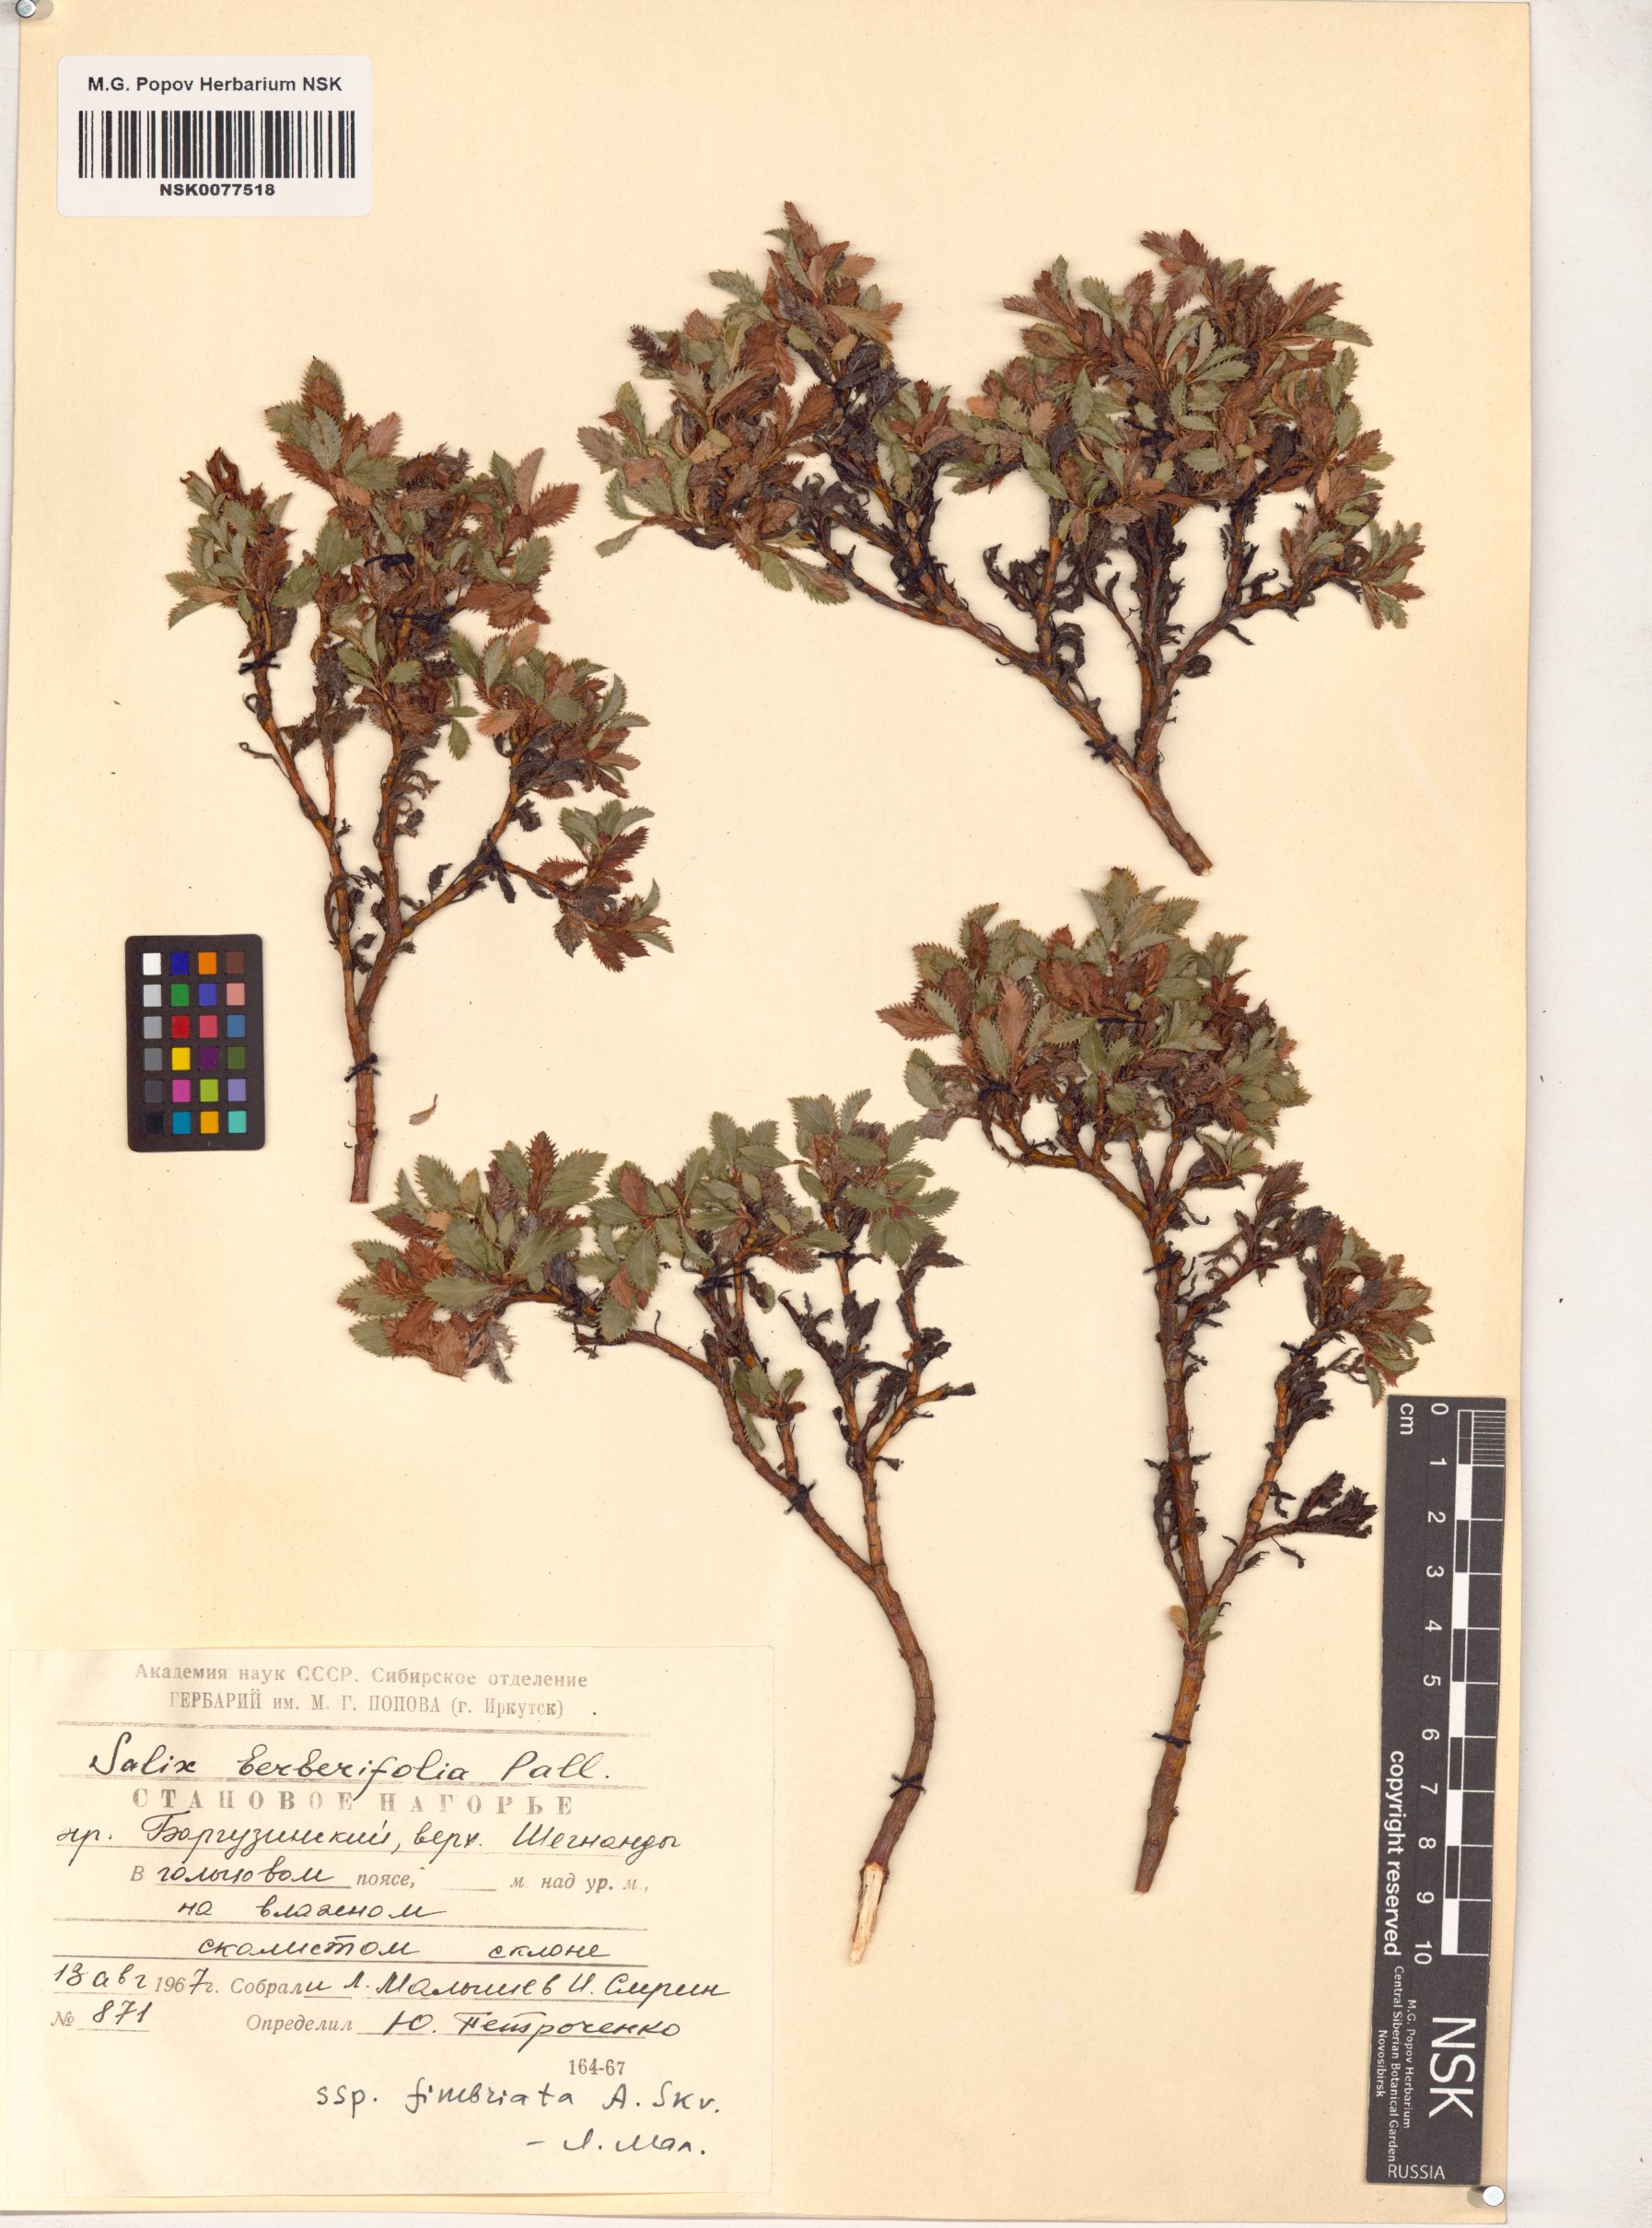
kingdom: Plantae
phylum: Tracheophyta
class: Magnoliopsida
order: Malpighiales
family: Salicaceae
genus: Salix
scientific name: Salix berberifolia
